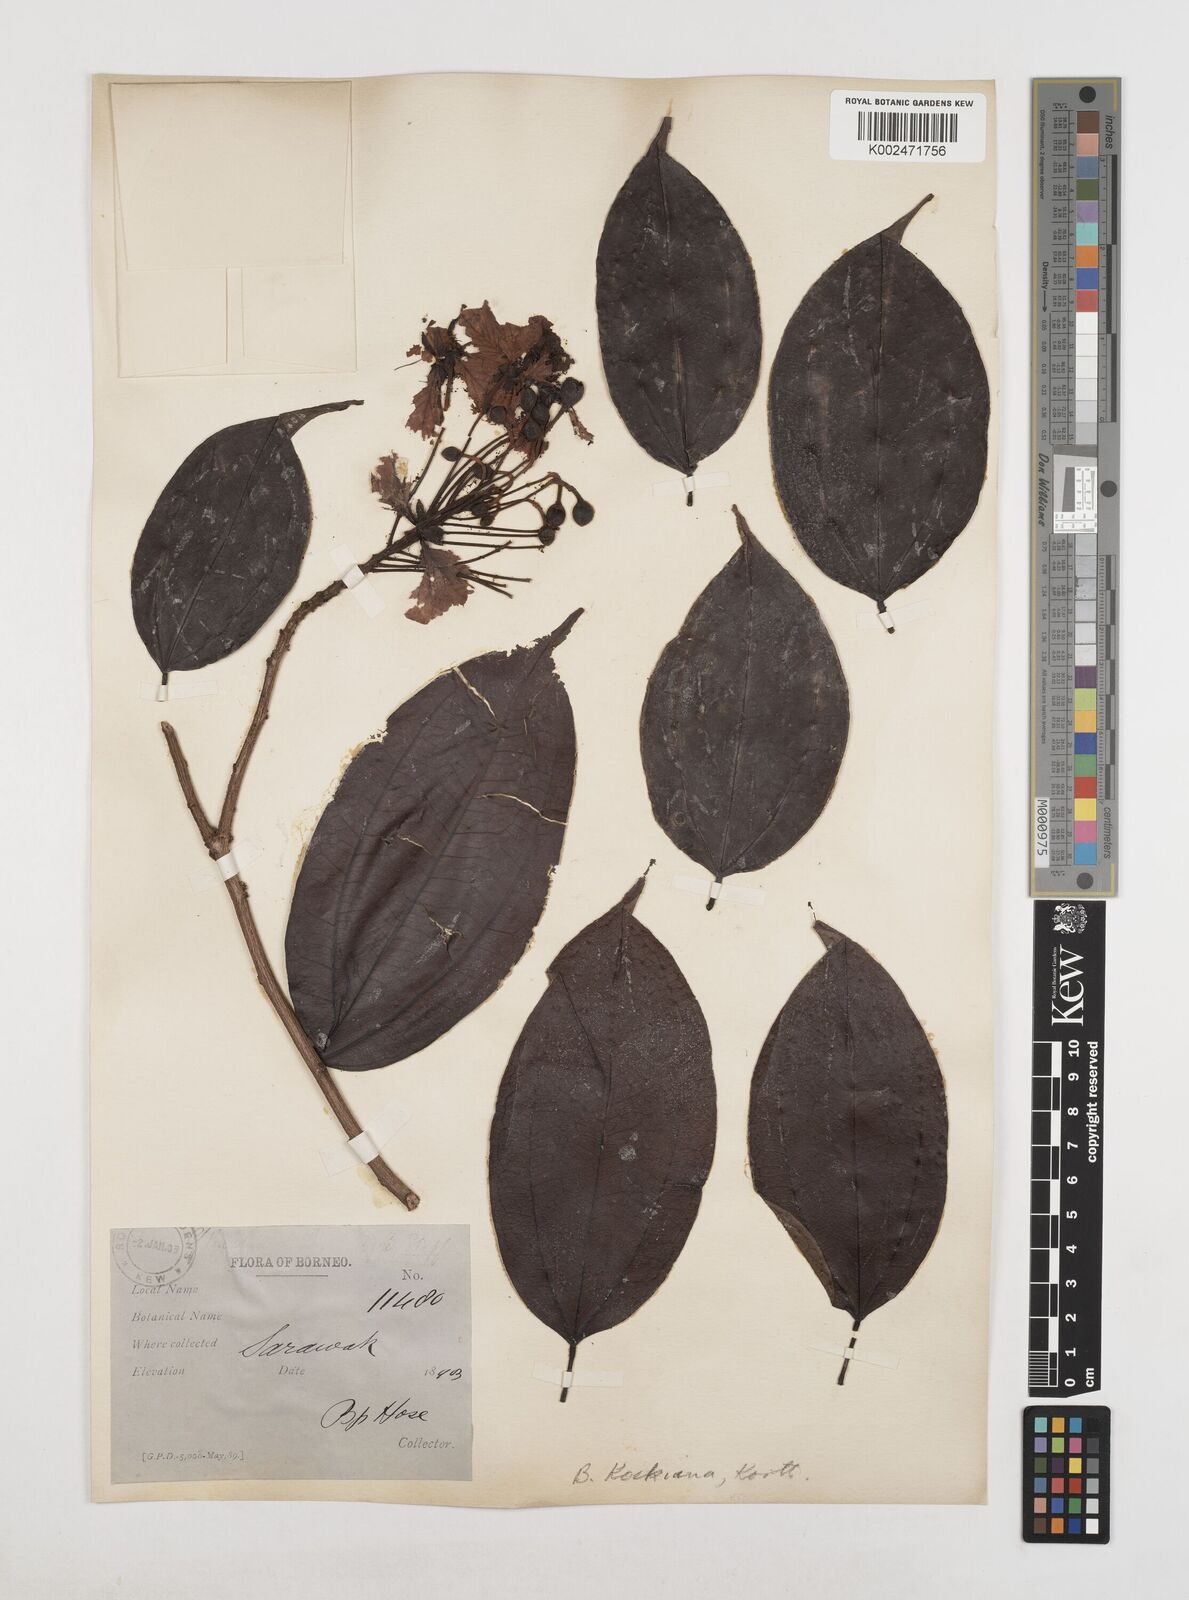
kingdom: Plantae
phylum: Tracheophyta
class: Magnoliopsida
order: Fabales
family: Fabaceae
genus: Phanera
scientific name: Phanera kockiana
